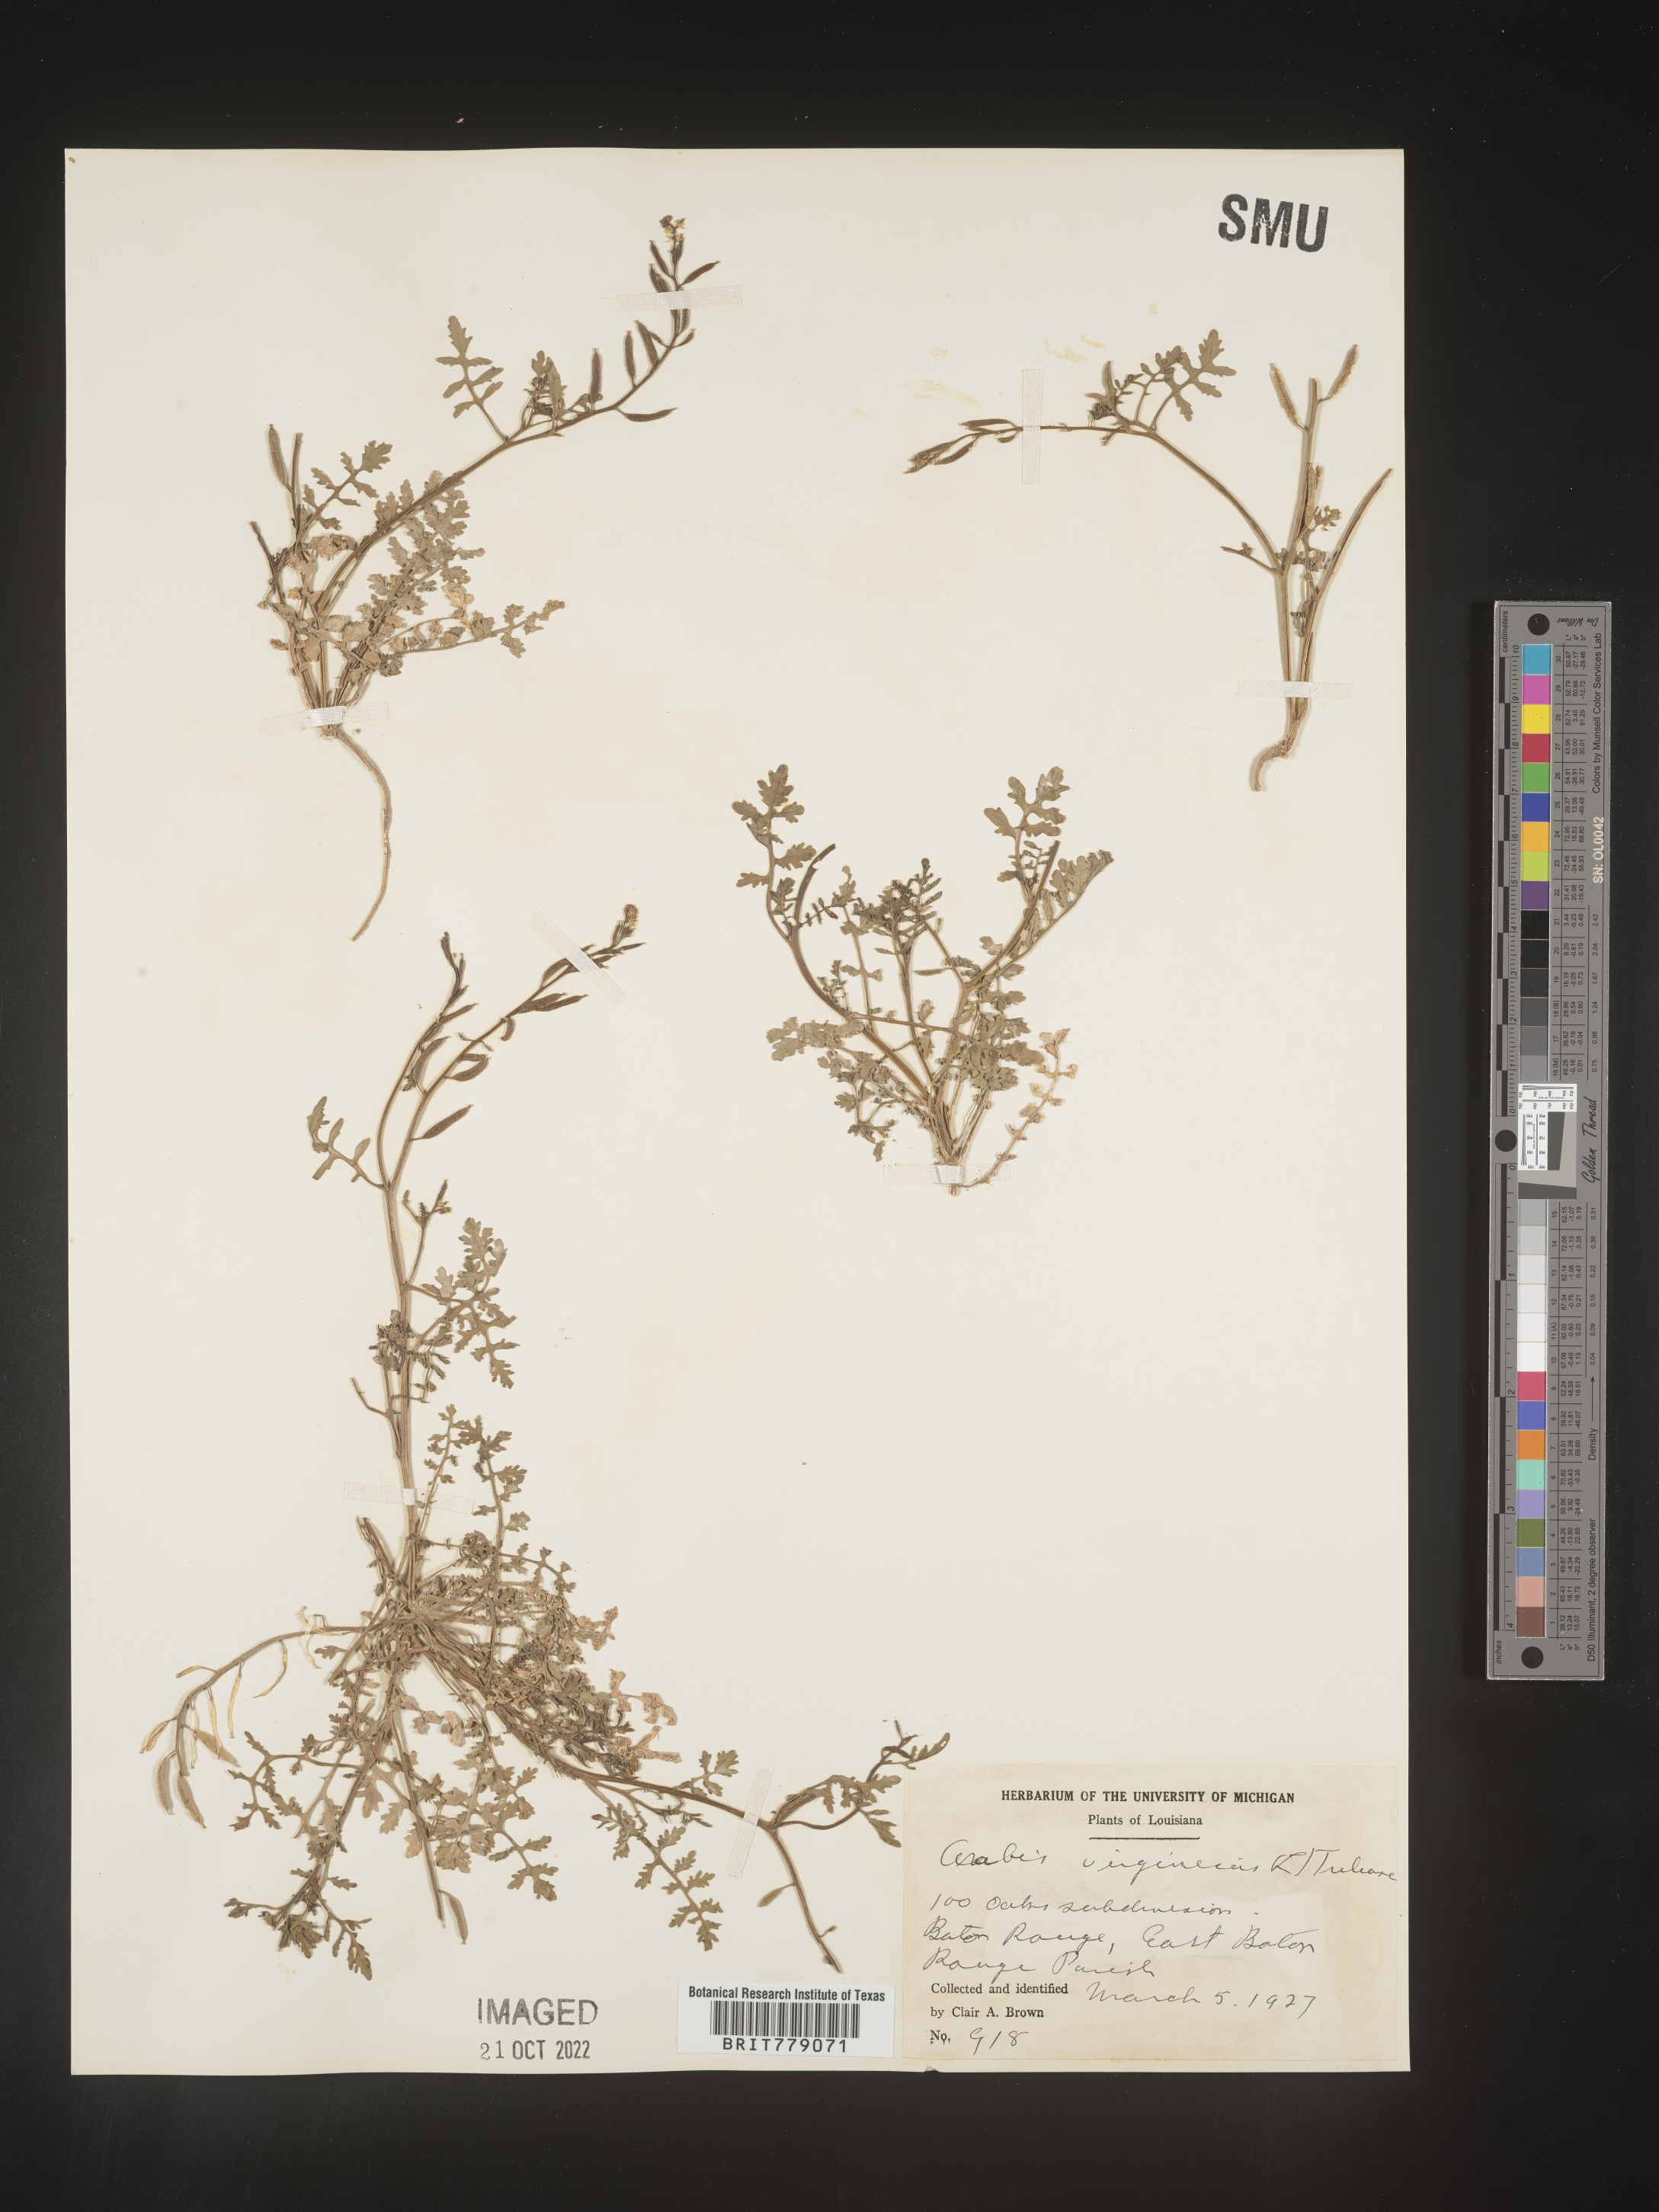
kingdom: Plantae
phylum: Tracheophyta
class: Magnoliopsida
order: Brassicales
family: Brassicaceae
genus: Sibara
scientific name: Sibara
